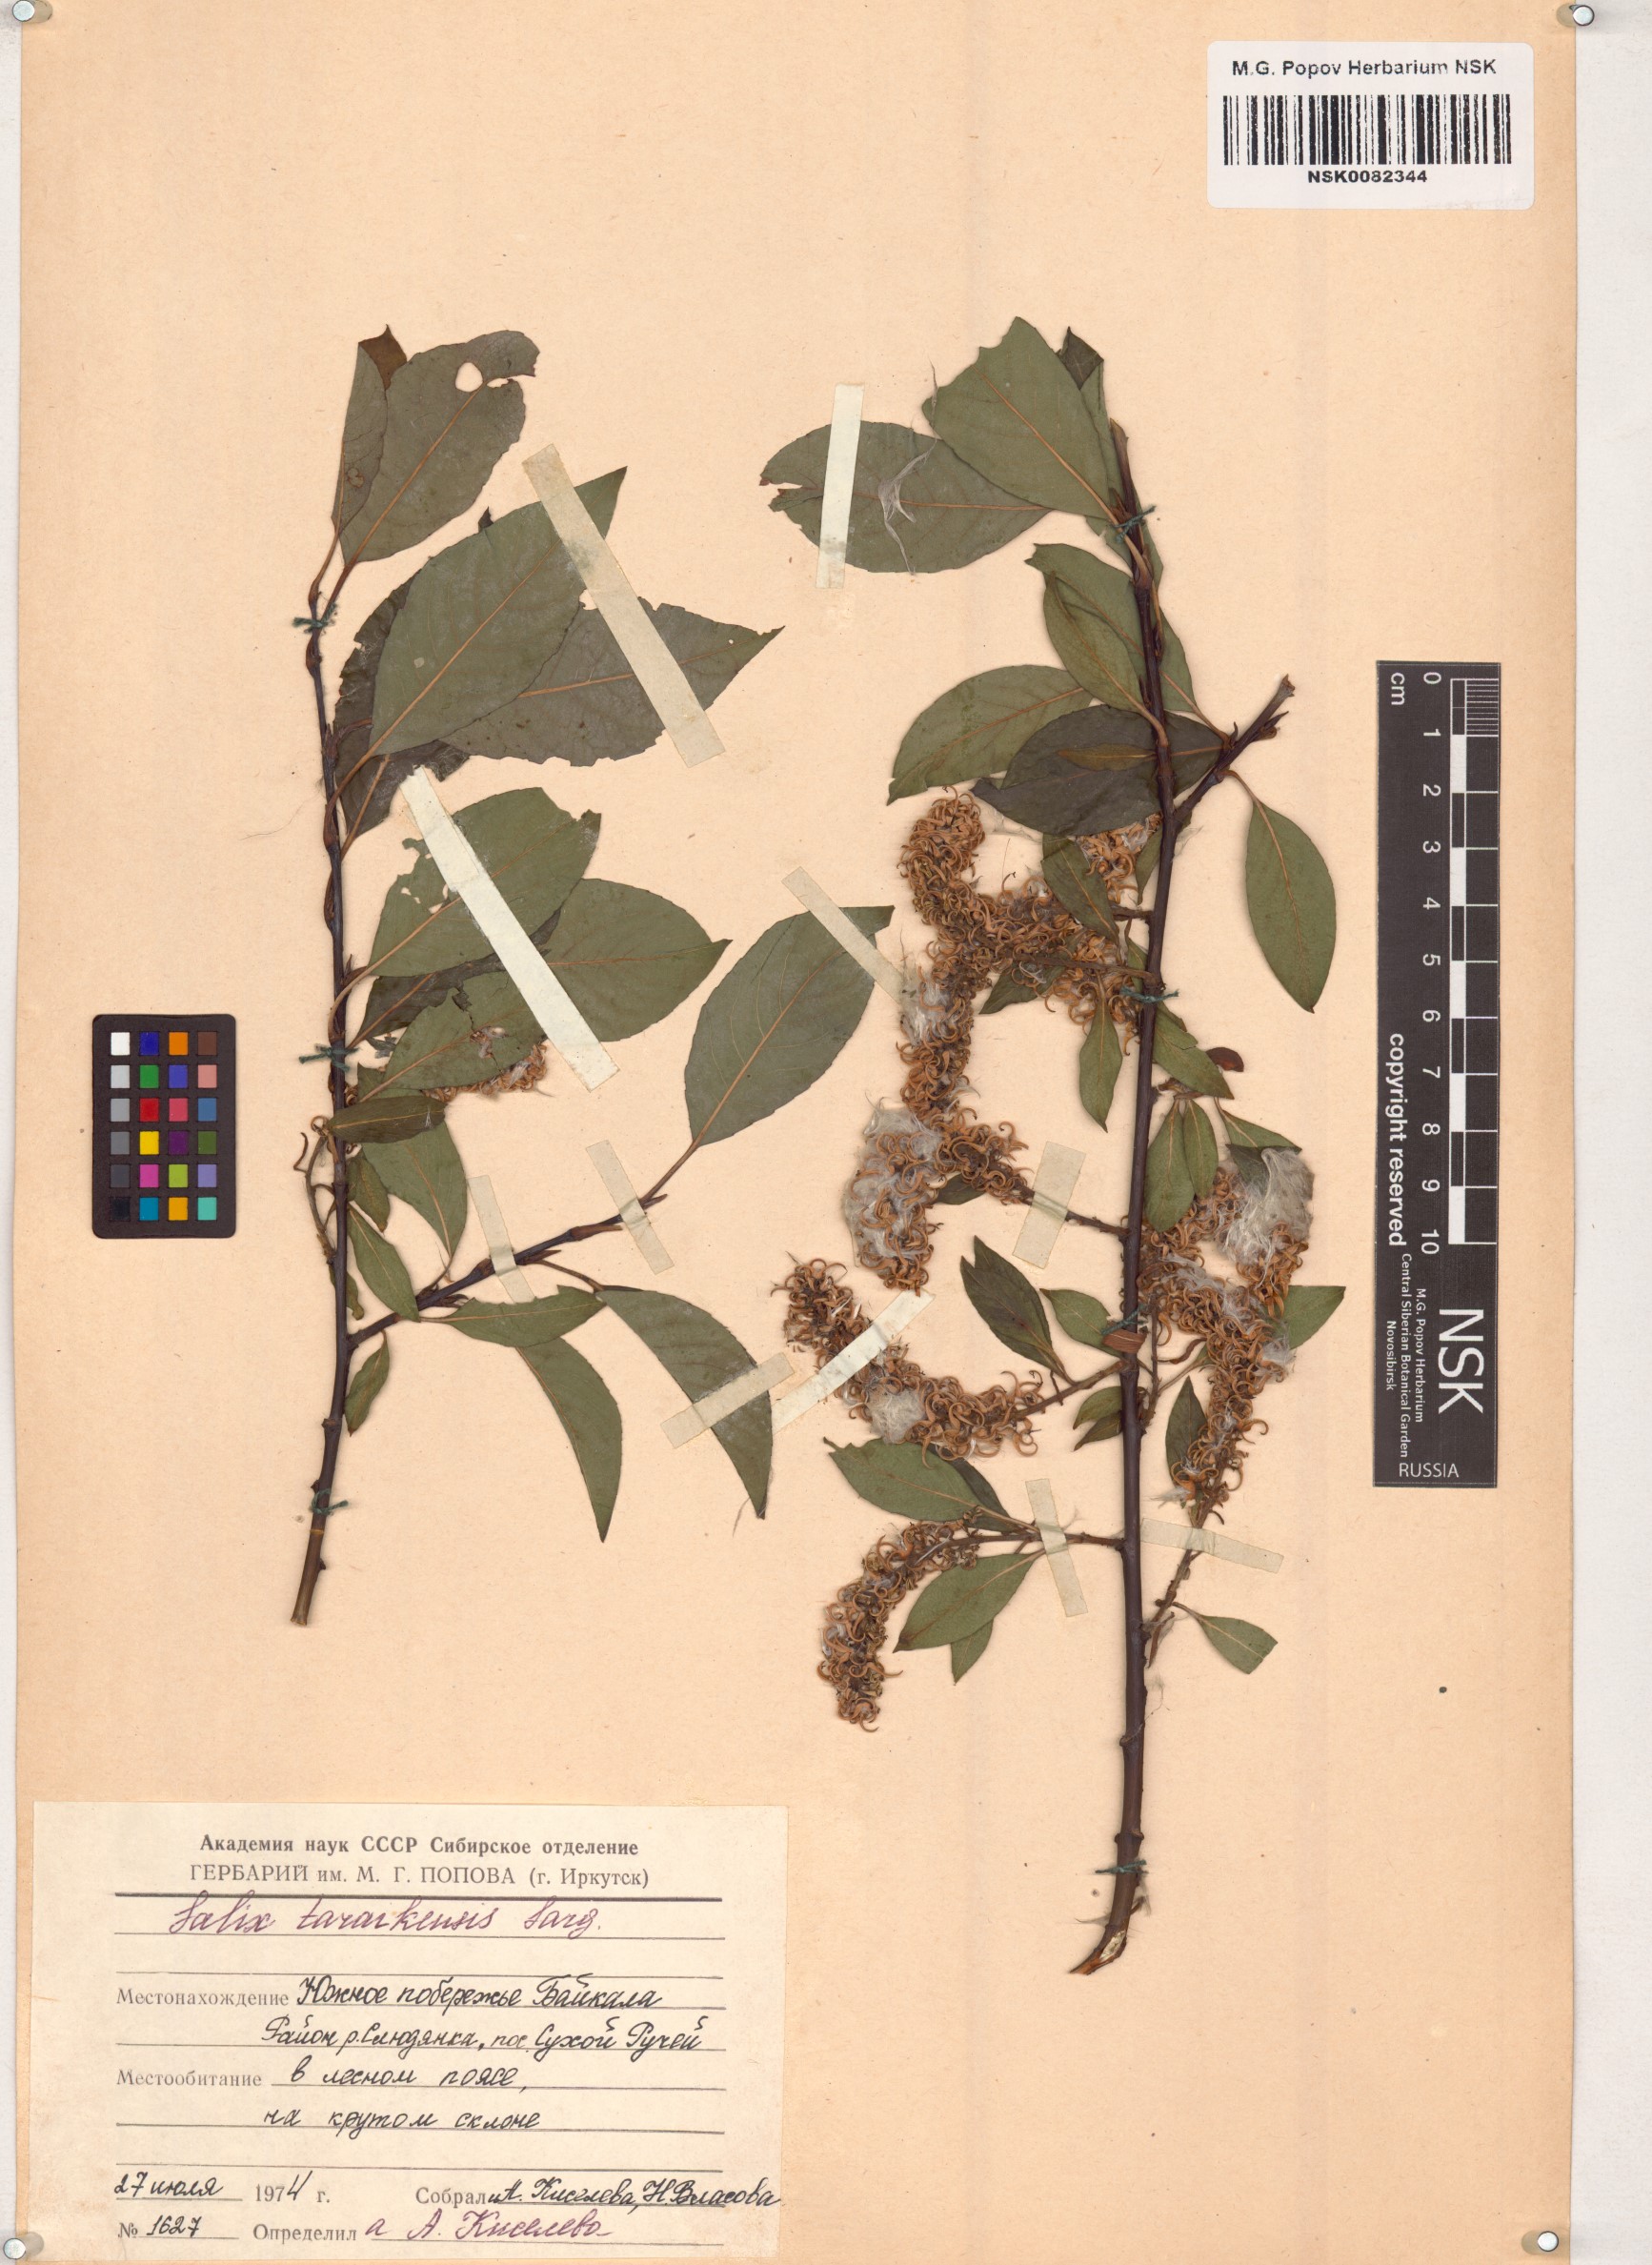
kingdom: Plantae
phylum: Tracheophyta
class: Magnoliopsida
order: Malpighiales
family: Salicaceae
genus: Salix
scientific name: Salix taraikensis
